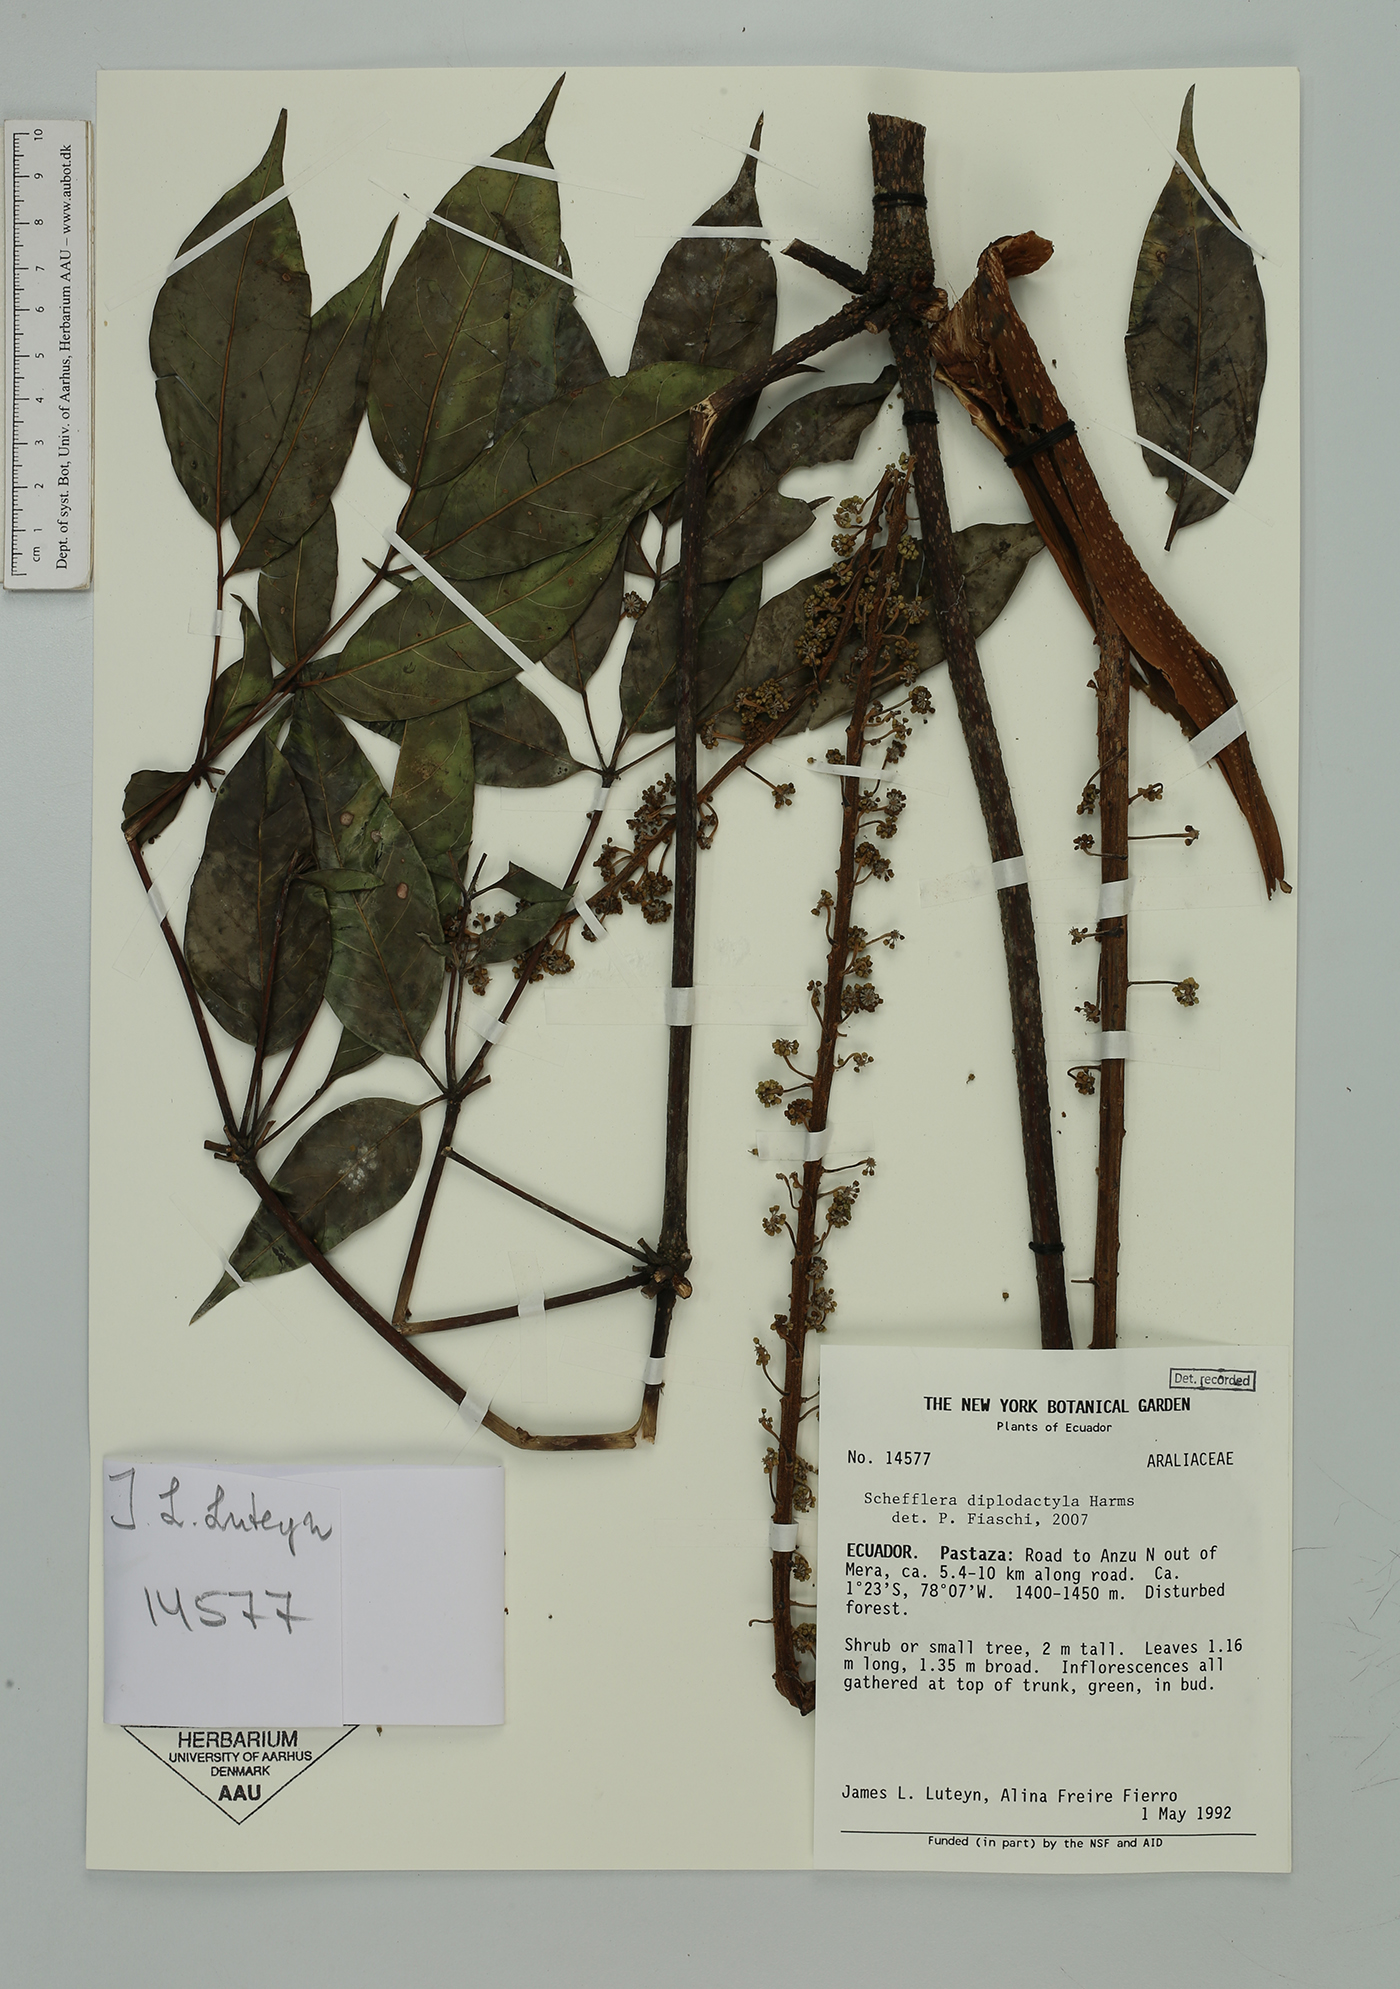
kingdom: Plantae
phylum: Tracheophyta
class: Magnoliopsida
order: Apiales
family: Araliaceae
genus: Sciodaphyllum
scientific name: Sciodaphyllum diplodactylum
